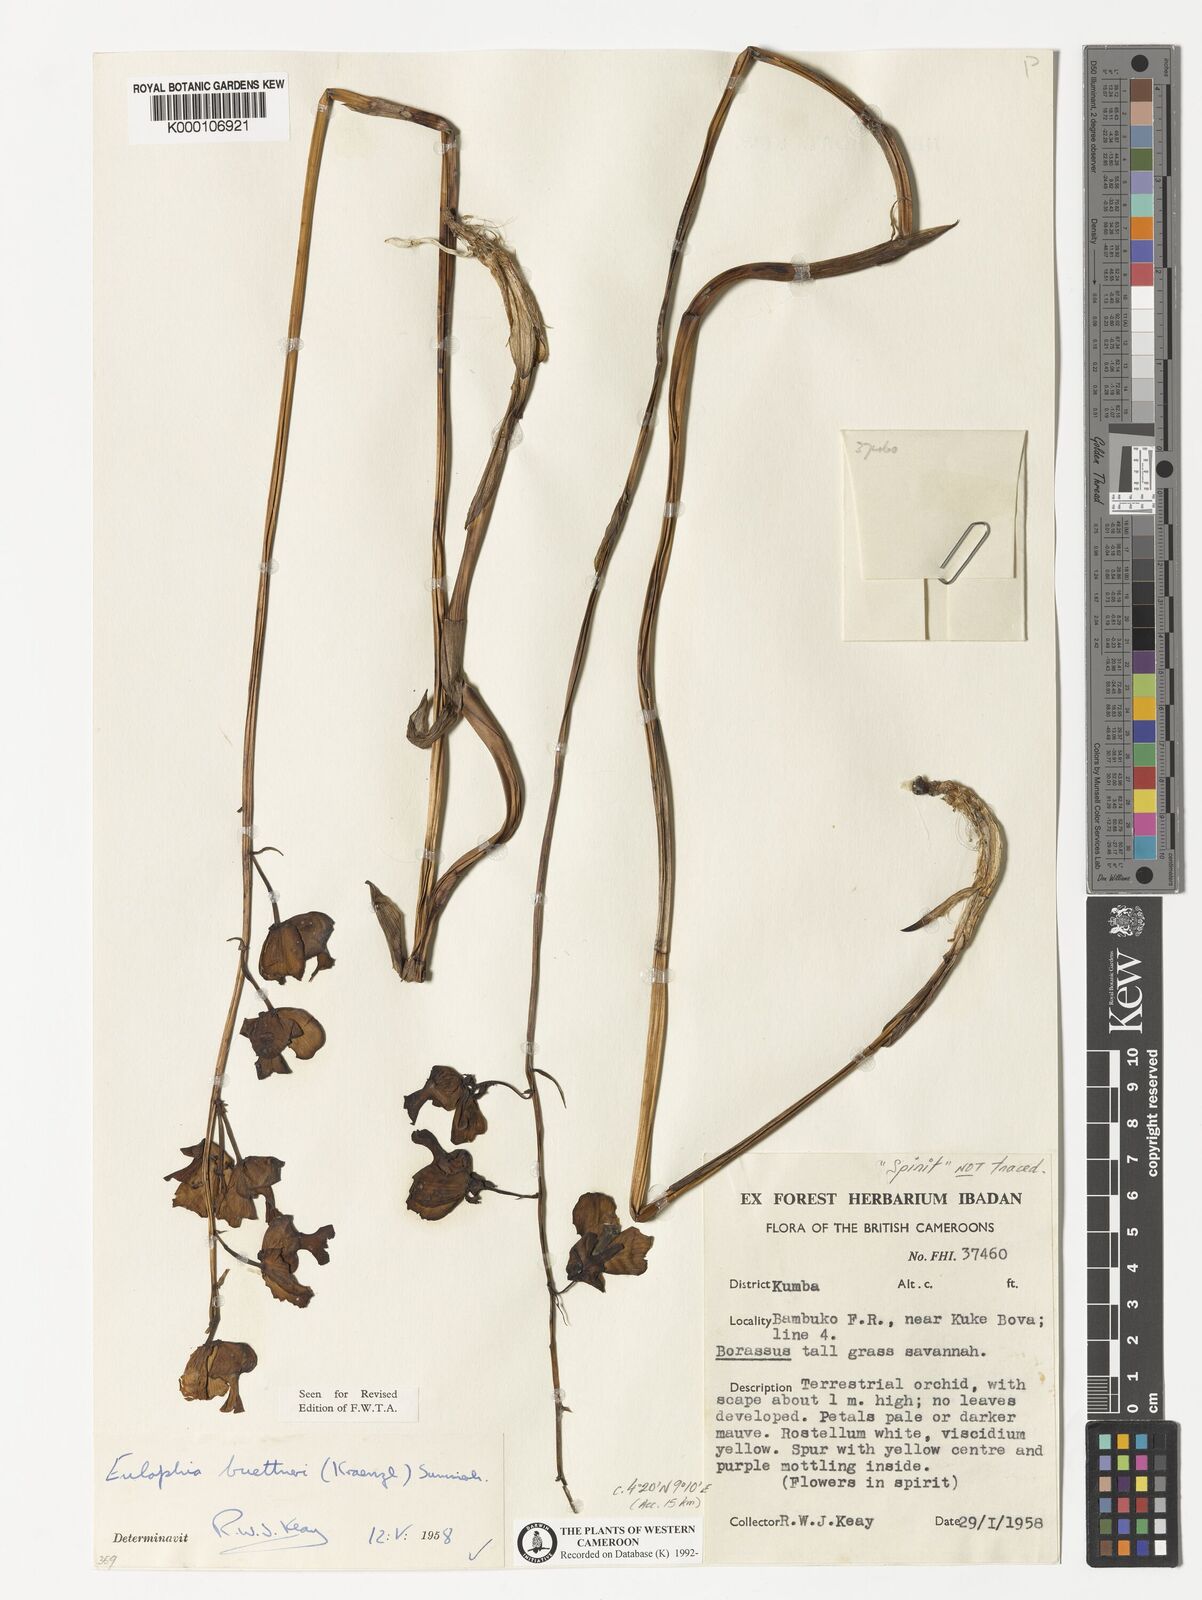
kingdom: Plantae
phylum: Tracheophyta
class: Liliopsida
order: Asparagales
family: Orchidaceae
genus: Eulophia
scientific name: Eulophia buettneri
